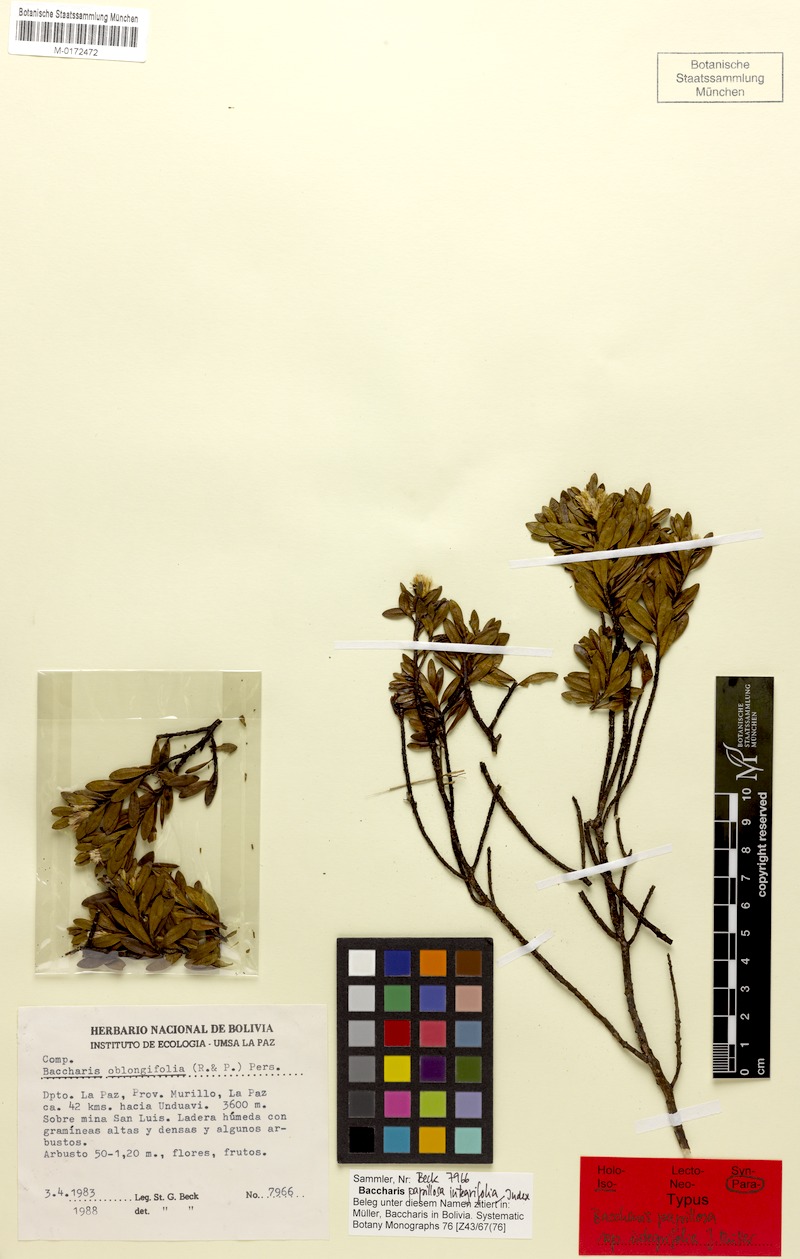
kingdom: Plantae
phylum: Tracheophyta
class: Magnoliopsida
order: Asterales
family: Asteraceae
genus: Baccharis
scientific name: Baccharis integrifolia
